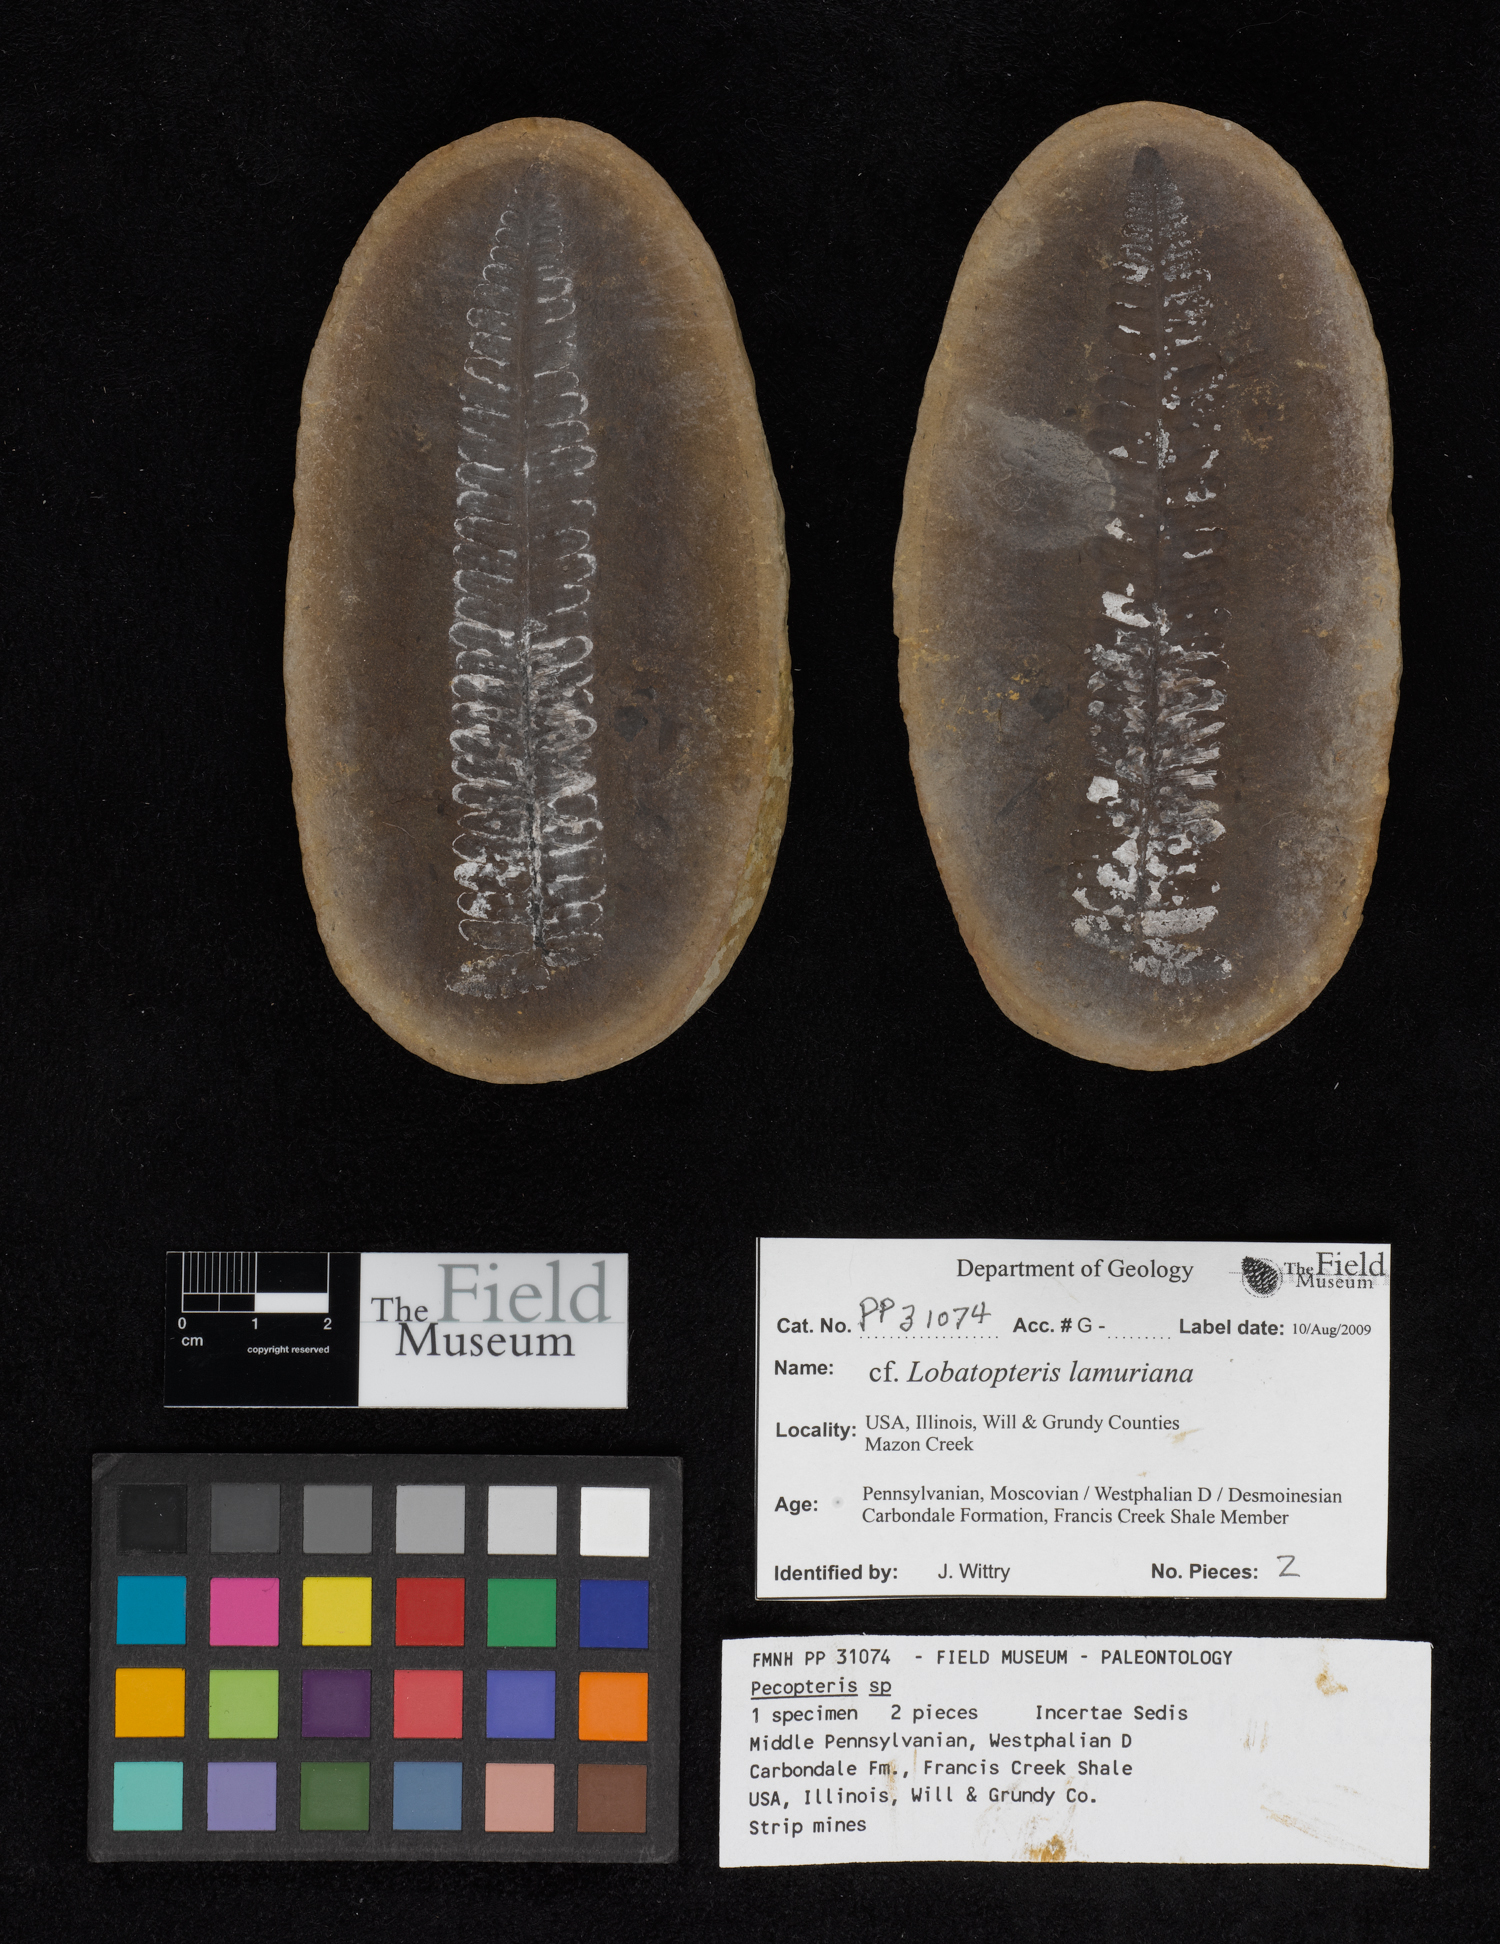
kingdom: Plantae
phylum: Tracheophyta
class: Polypodiopsida
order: Marattiales
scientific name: Marattiales
